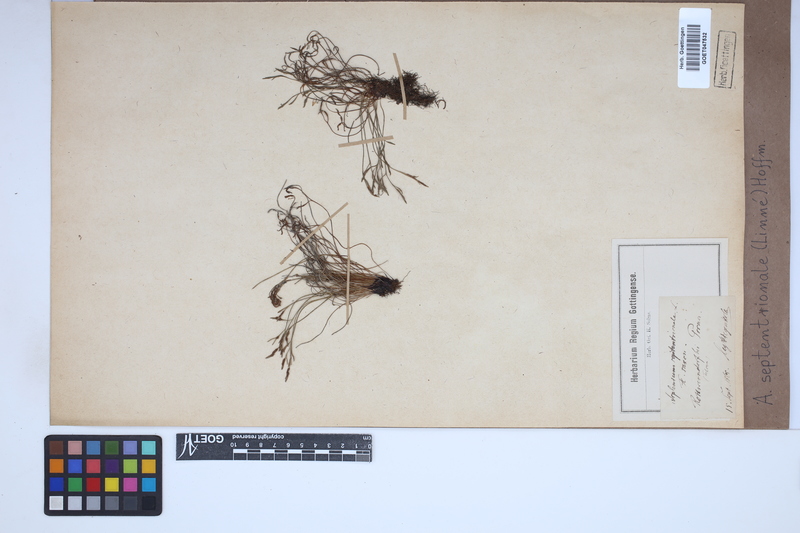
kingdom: Plantae
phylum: Tracheophyta
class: Polypodiopsida
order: Polypodiales
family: Aspleniaceae
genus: Asplenium
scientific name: Asplenium septentrionale
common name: Forked spleenwort
